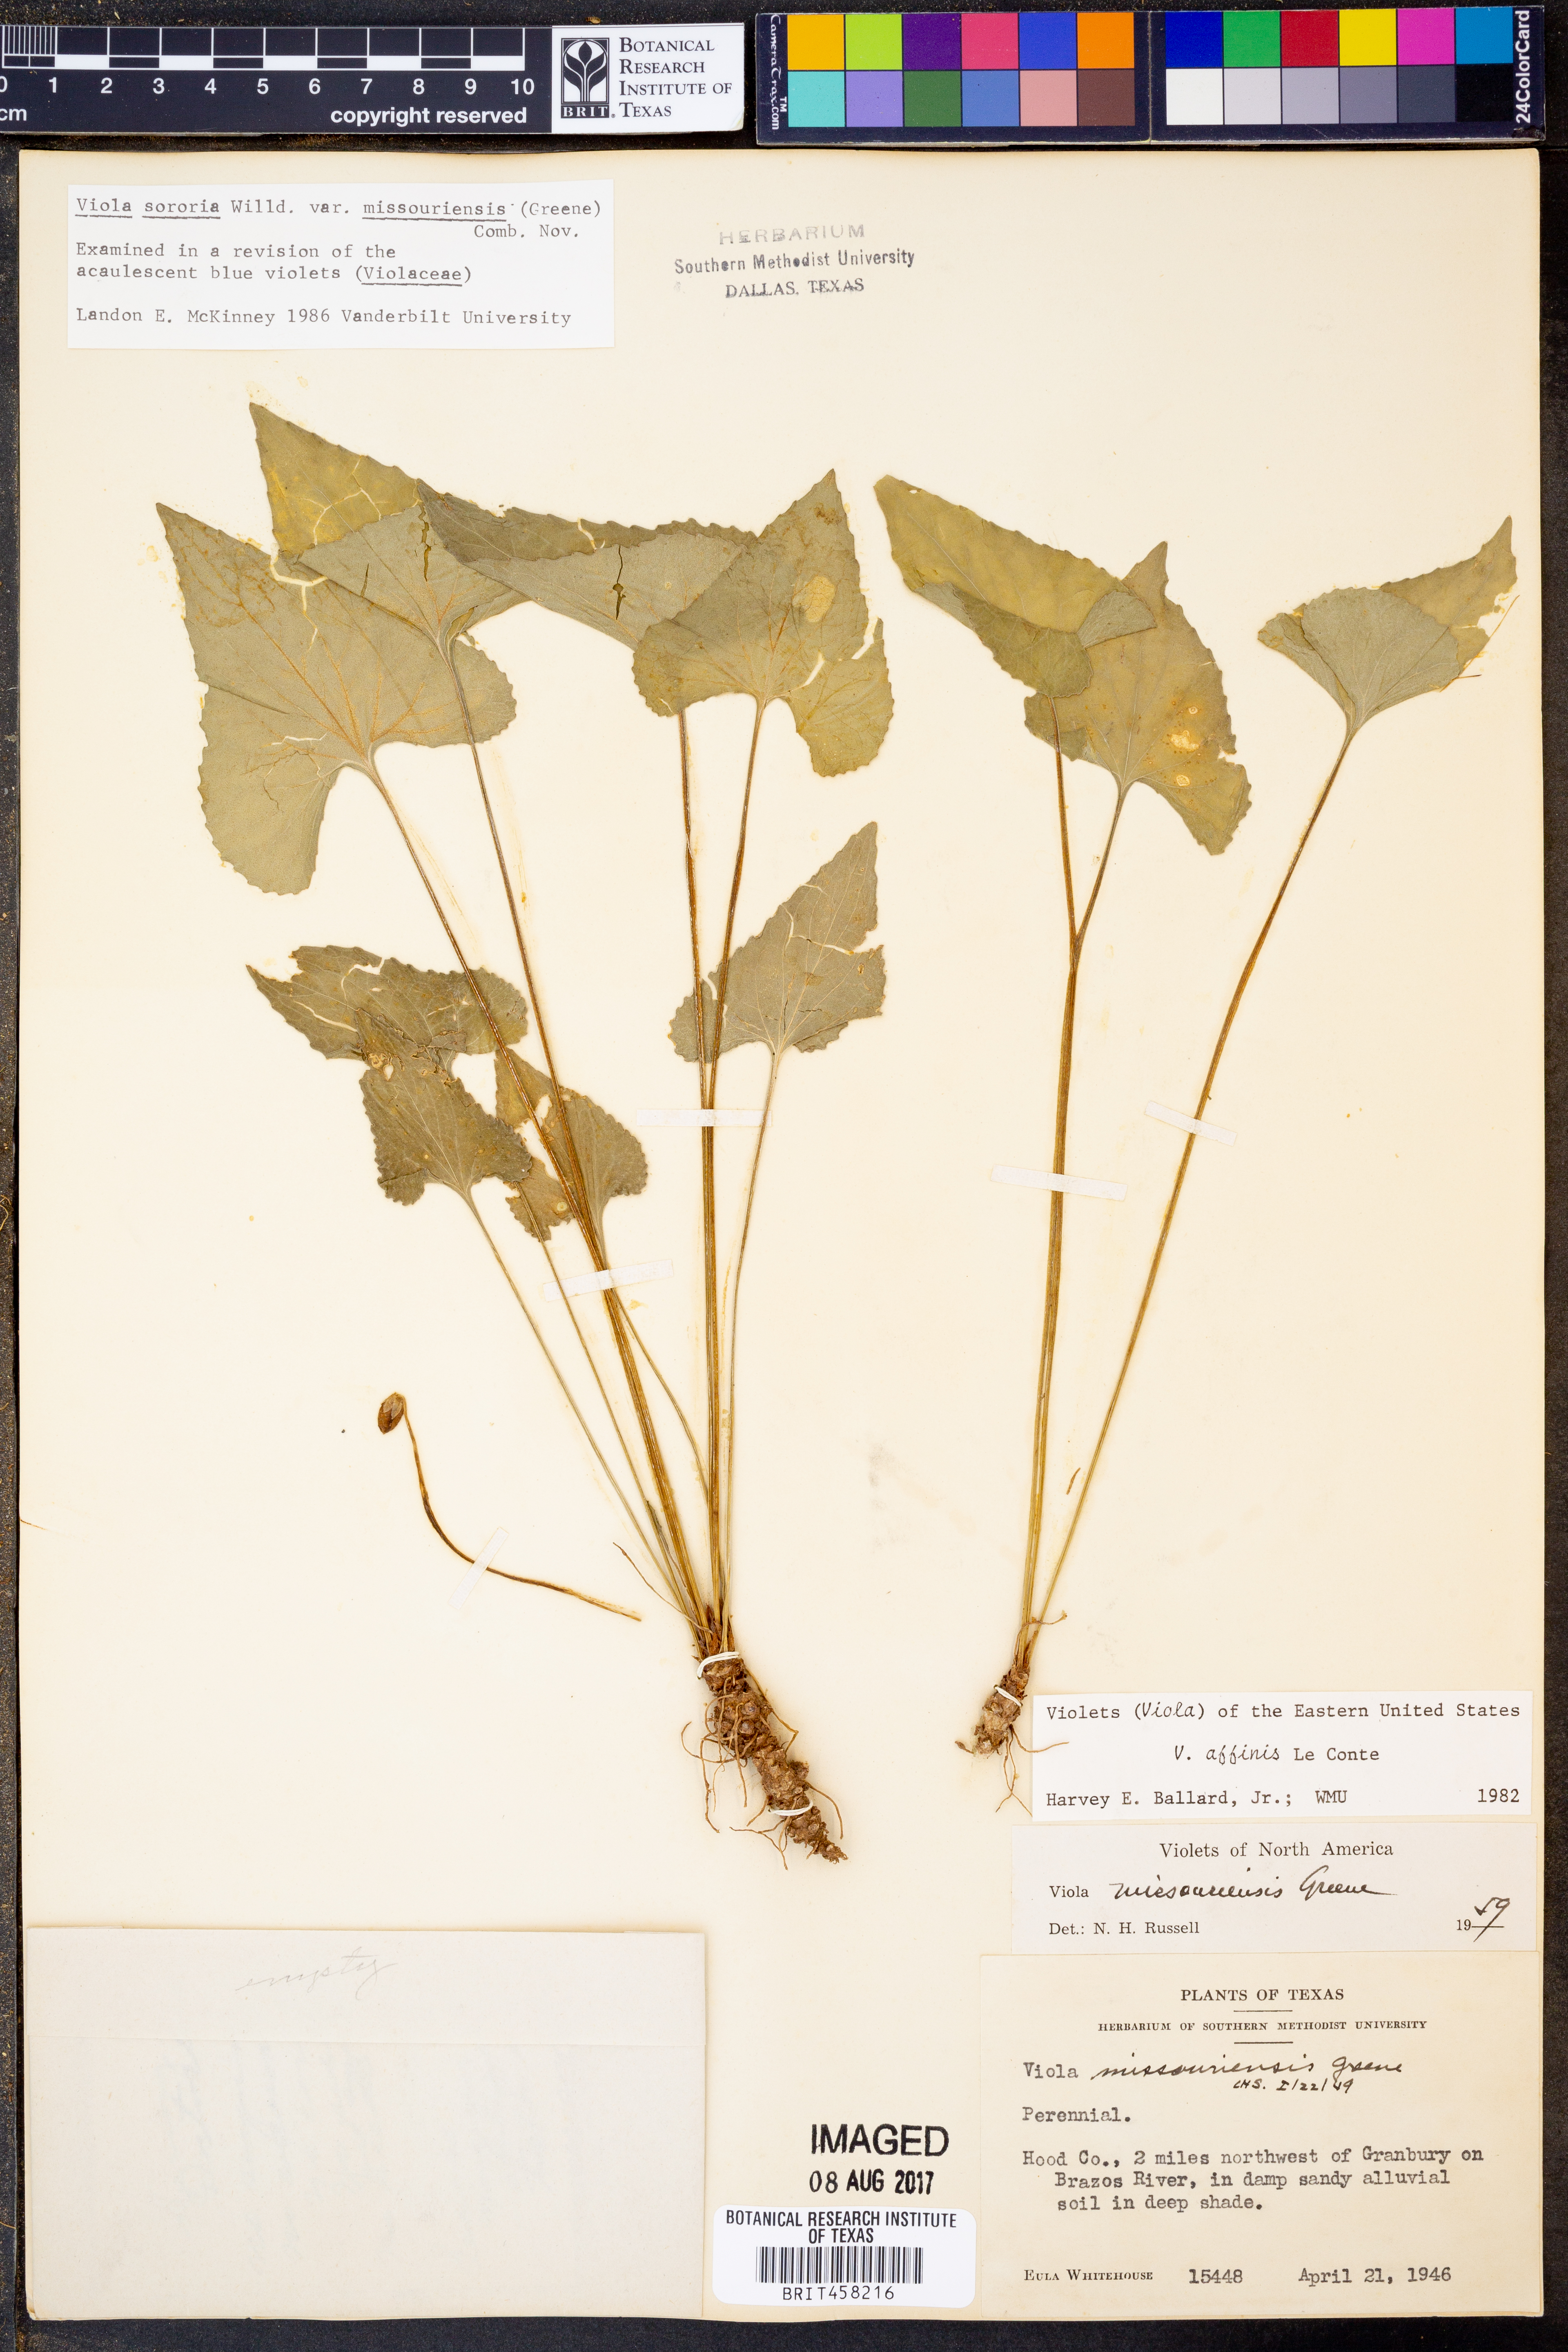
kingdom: Plantae
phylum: Tracheophyta
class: Magnoliopsida
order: Malpighiales
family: Violaceae
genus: Viola
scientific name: Viola missouriensis
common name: Missouri violet
